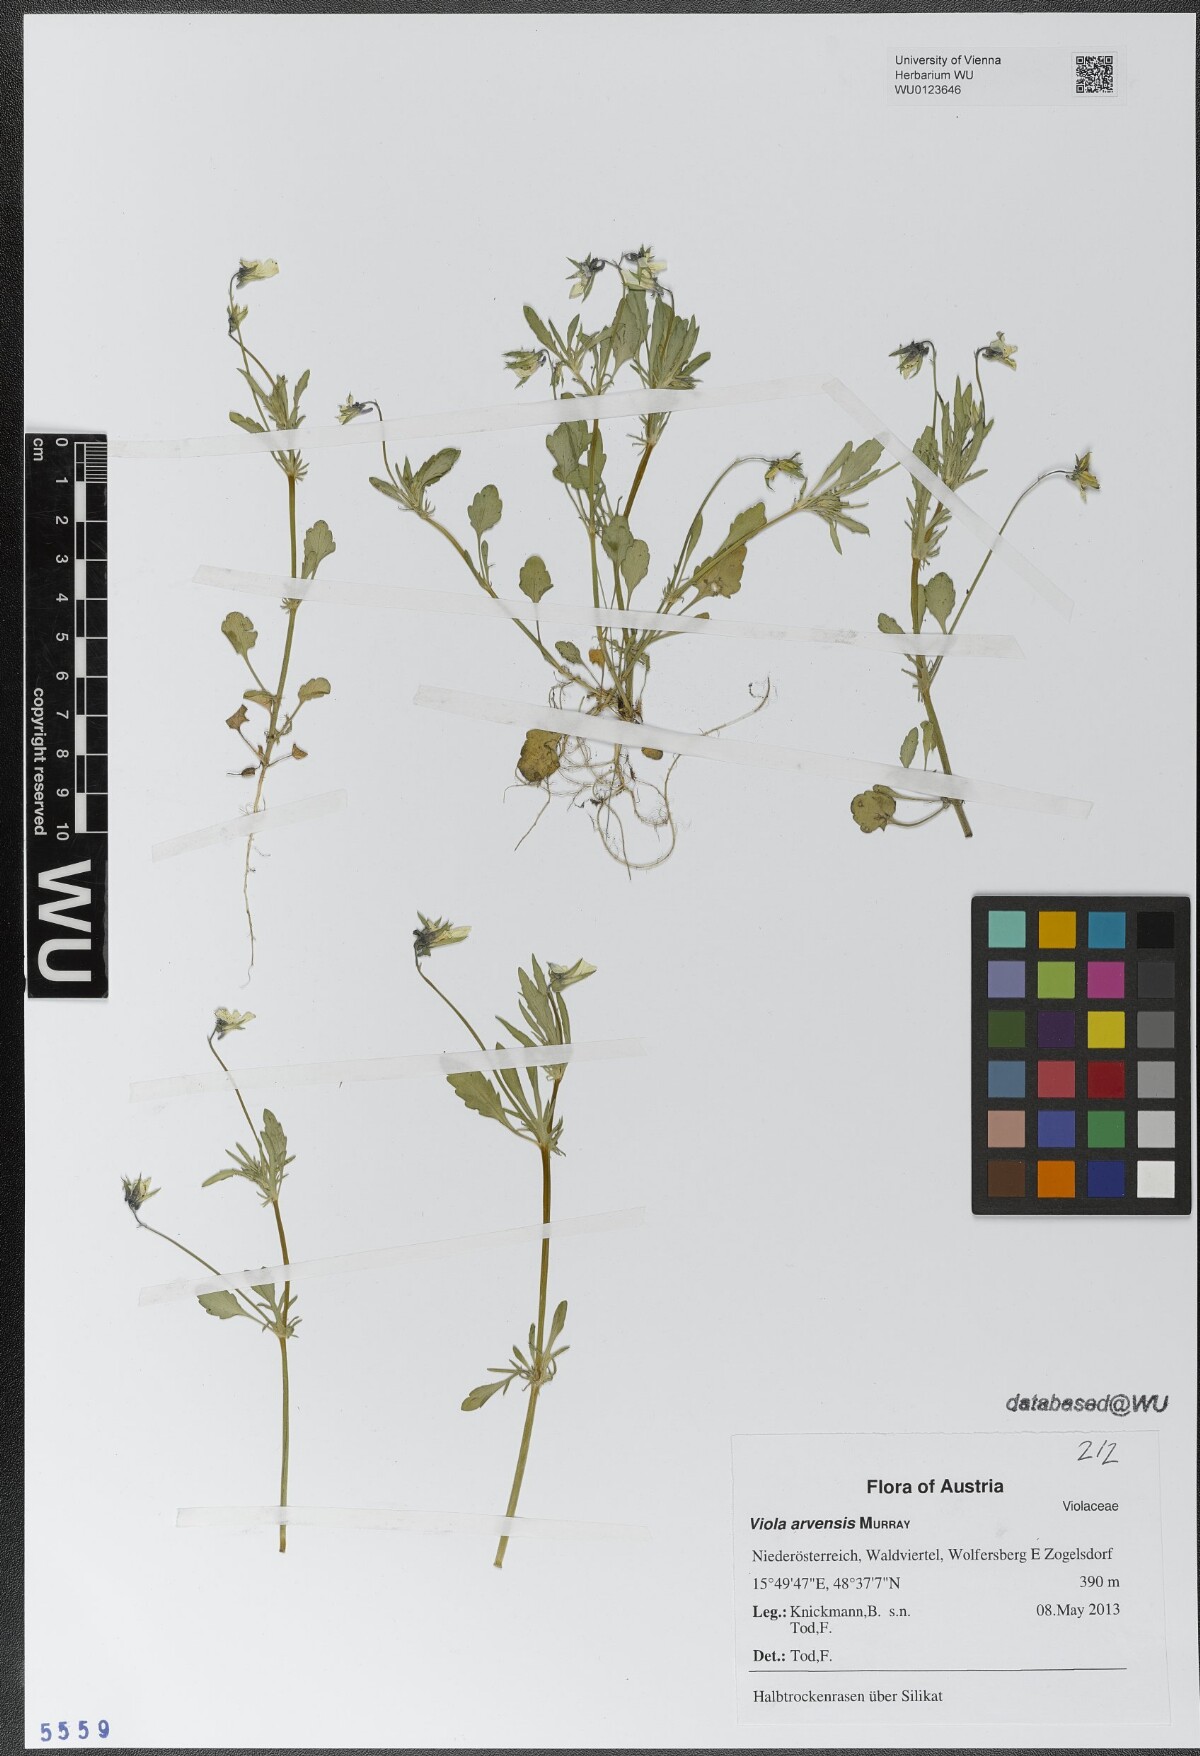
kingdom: Plantae
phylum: Tracheophyta
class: Magnoliopsida
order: Malpighiales
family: Violaceae
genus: Viola
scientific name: Viola arvensis
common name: Field pansy
